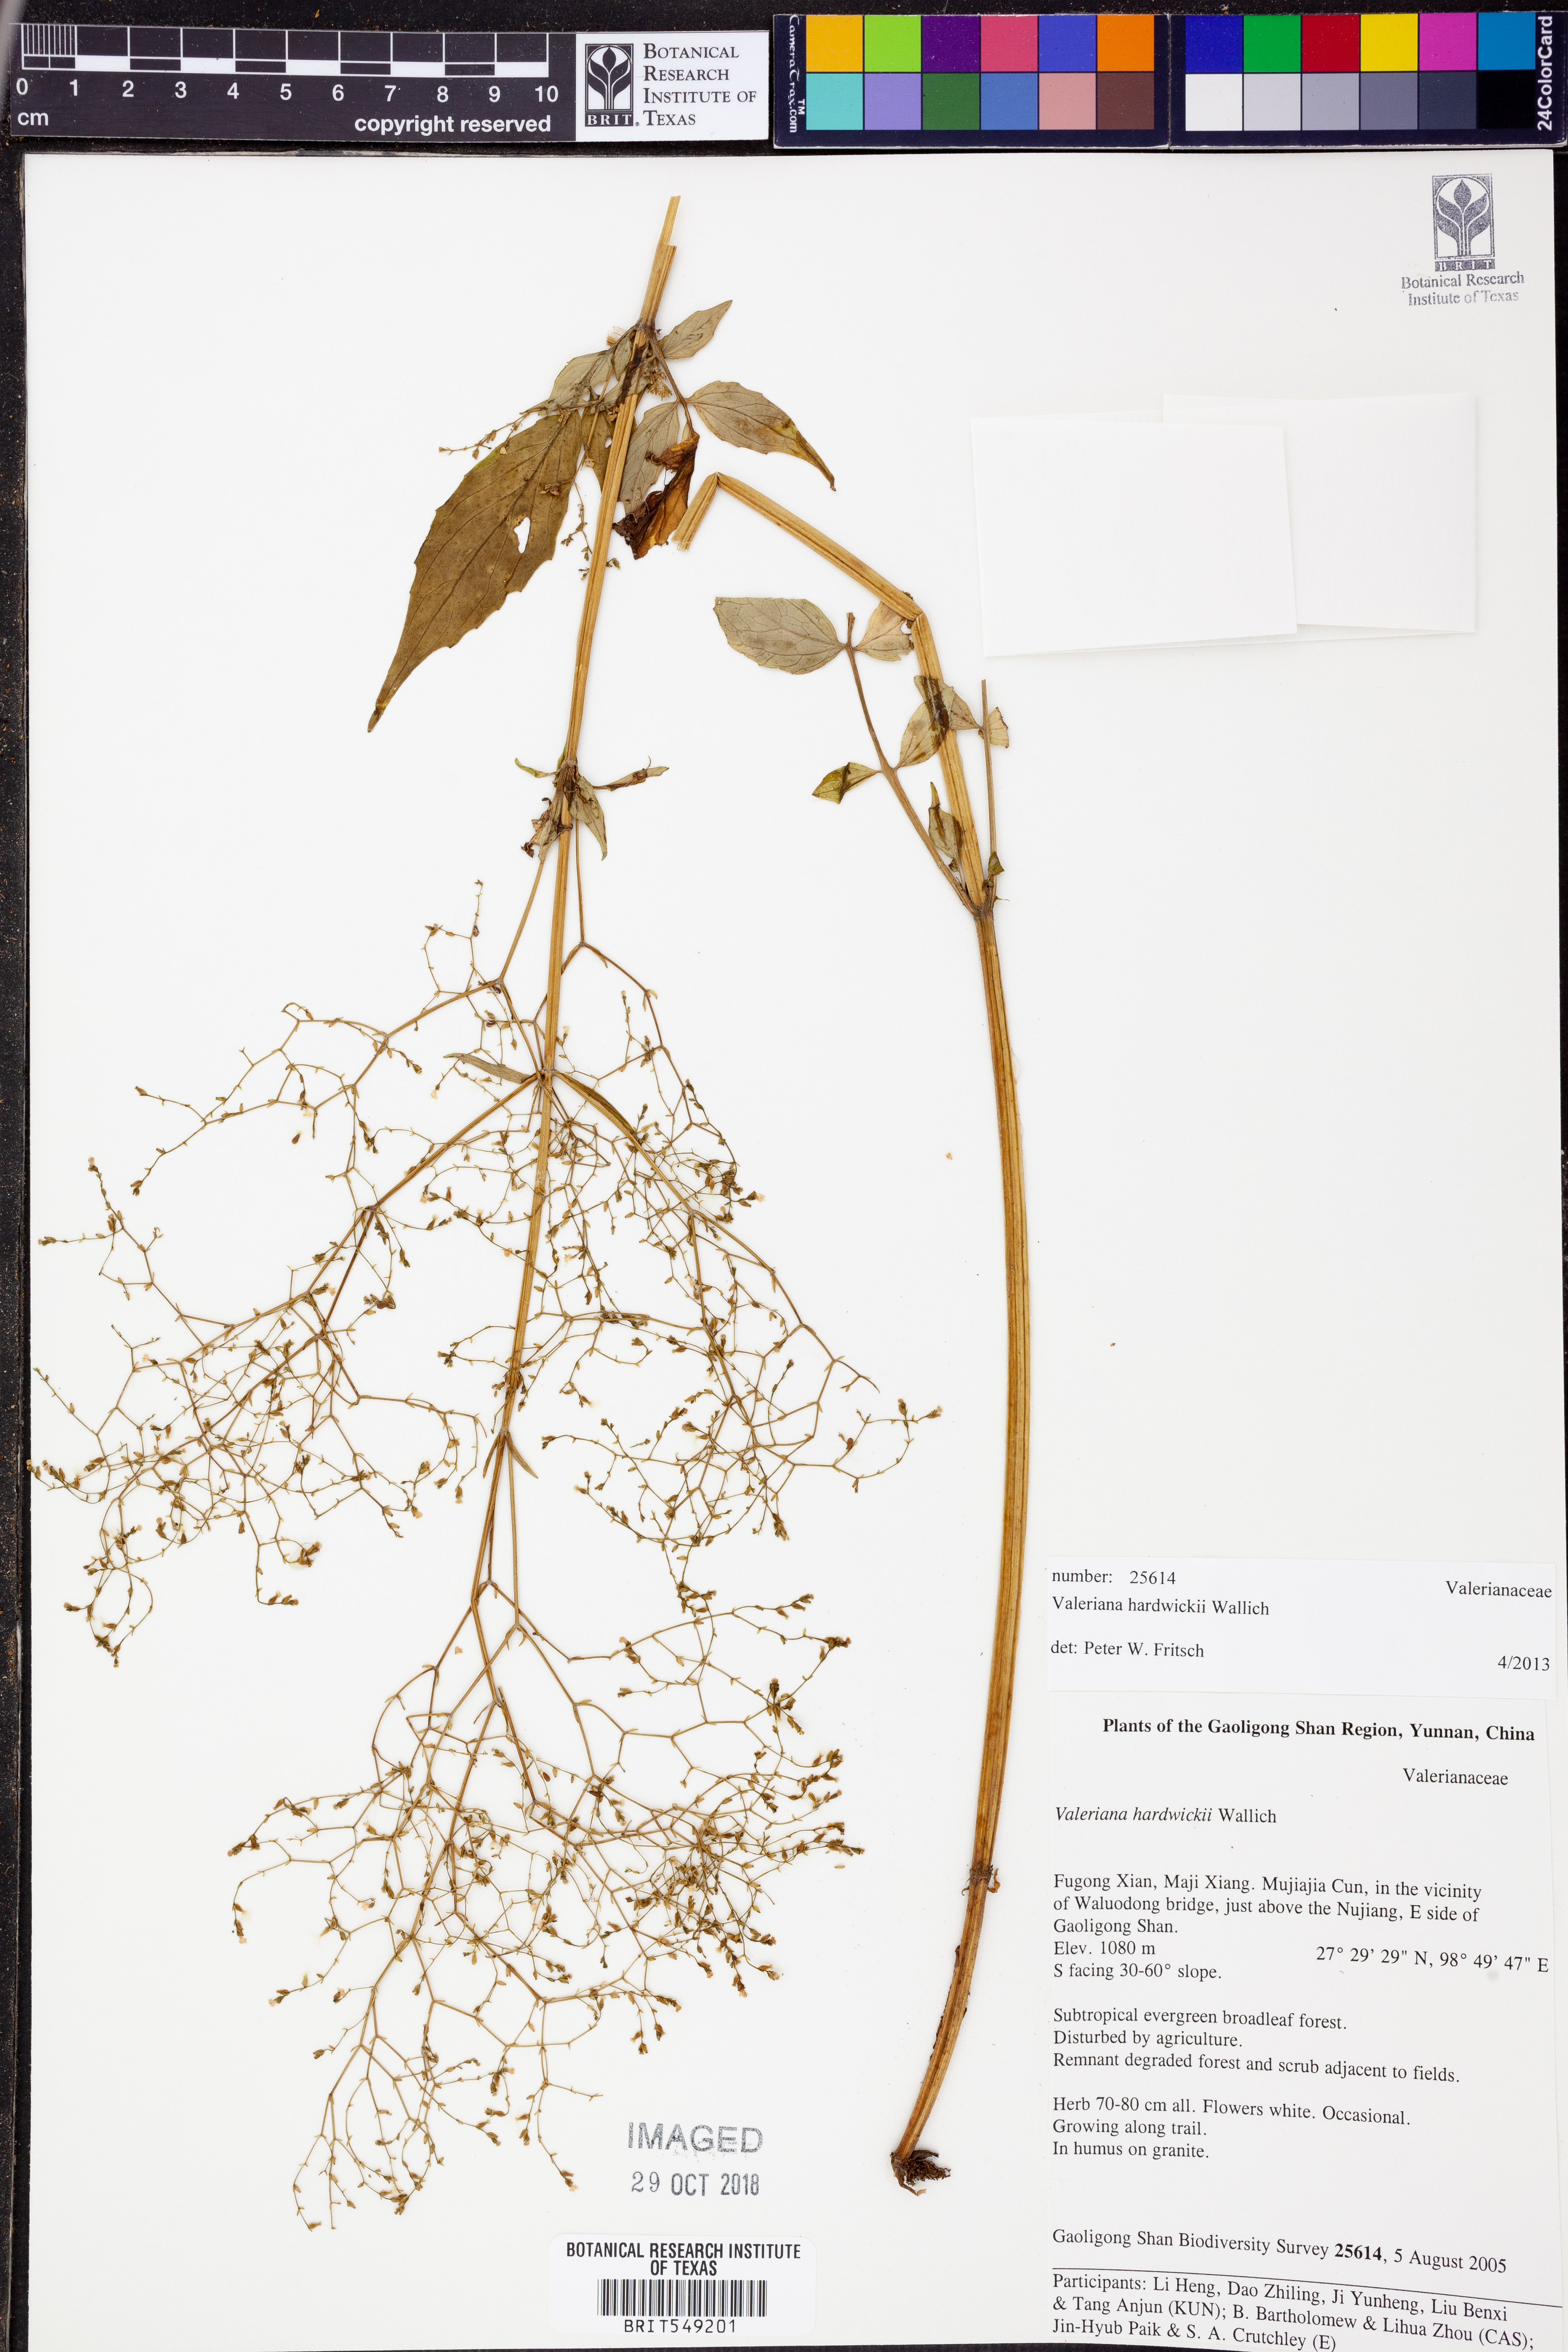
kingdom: Plantae
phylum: Tracheophyta
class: Magnoliopsida
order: Dipsacales
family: Caprifoliaceae
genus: Valeriana
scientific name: Valeriana jatamansi
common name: Indian valerian
